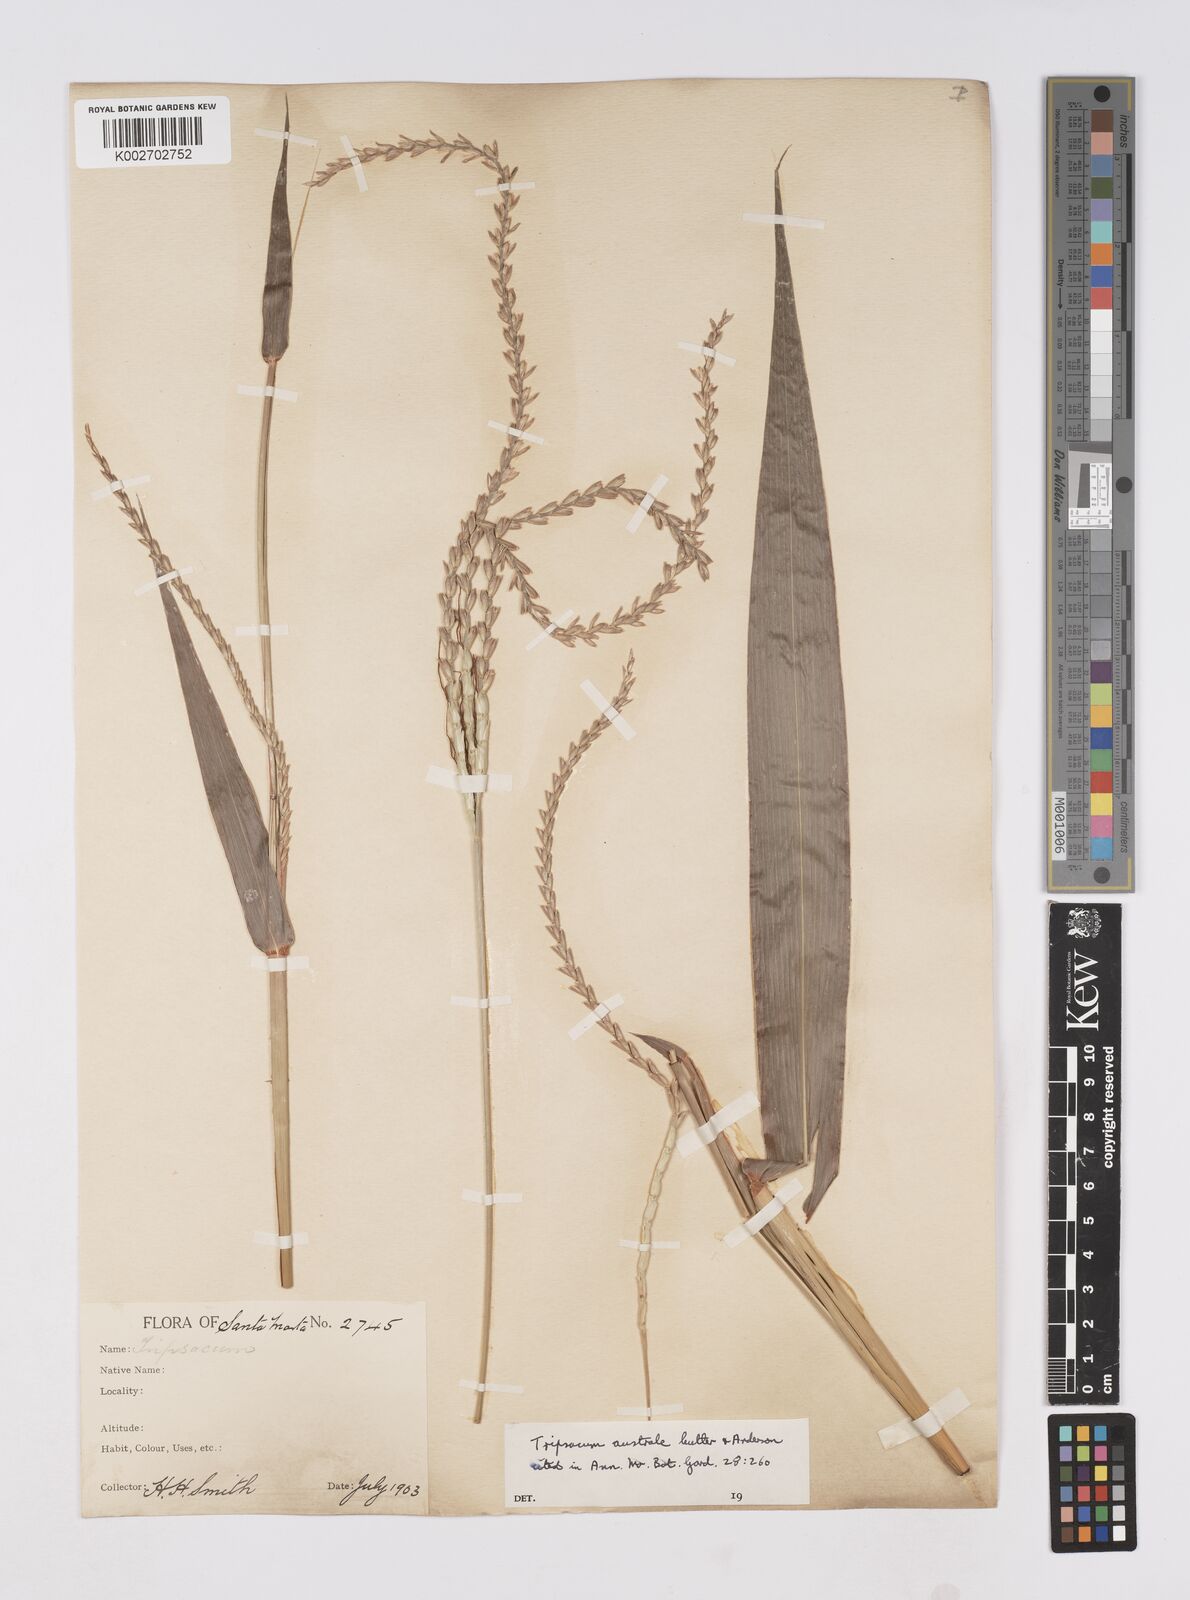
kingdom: Plantae
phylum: Tracheophyta
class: Liliopsida
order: Poales
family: Poaceae
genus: Tripsacum
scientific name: Tripsacum australe
